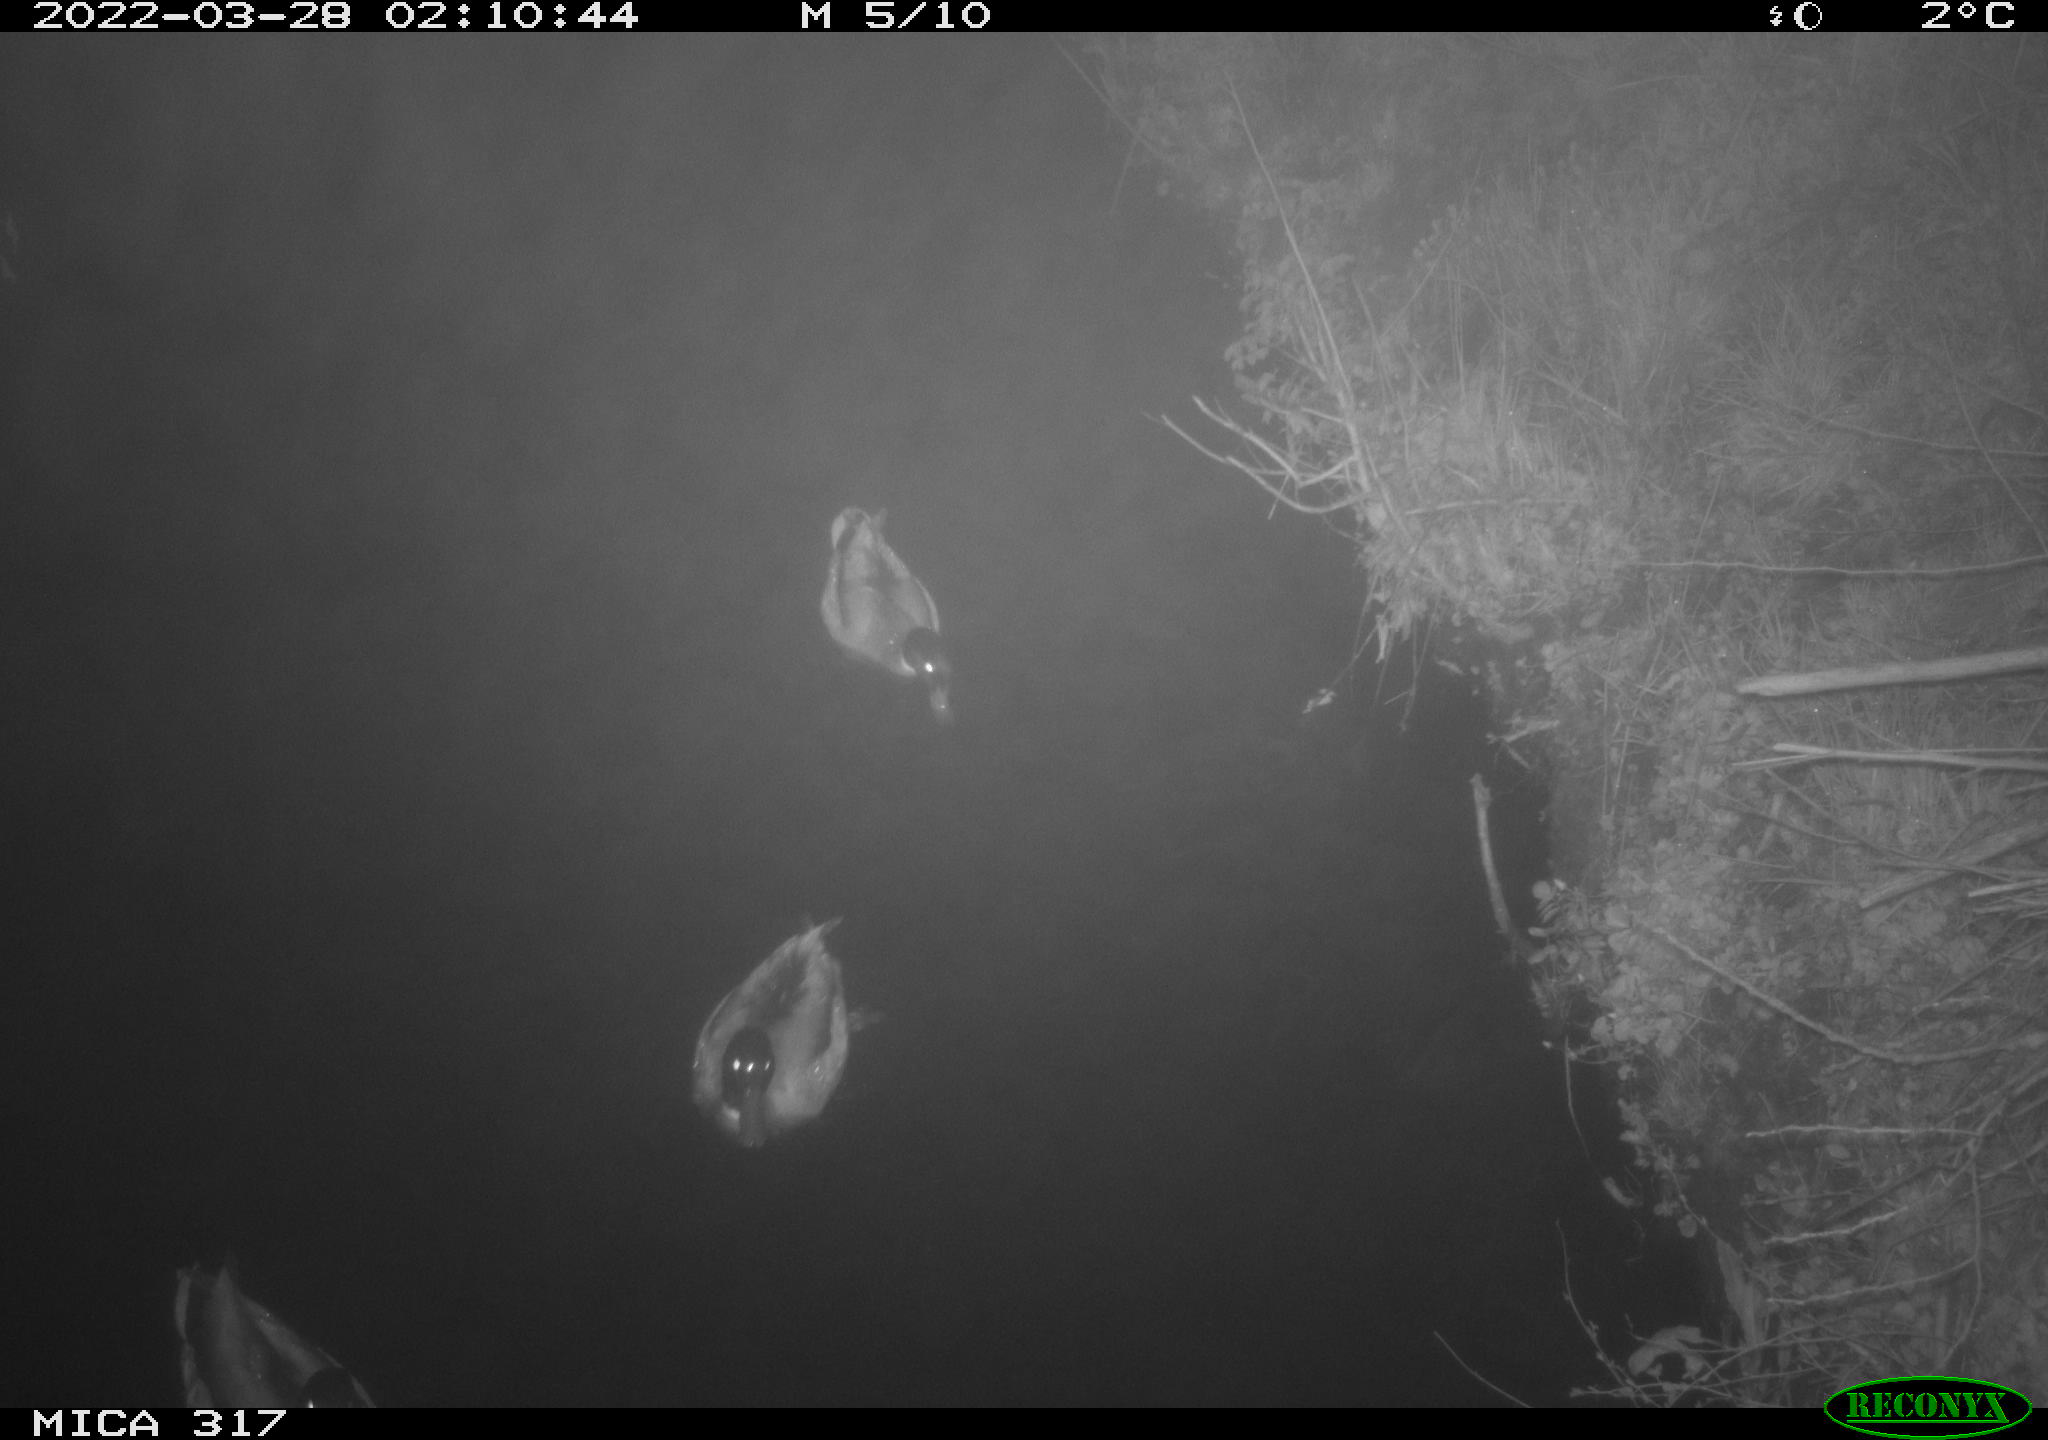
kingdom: Animalia
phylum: Chordata
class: Aves
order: Anseriformes
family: Anatidae
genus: Anas
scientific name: Anas platyrhynchos
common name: Mallard
